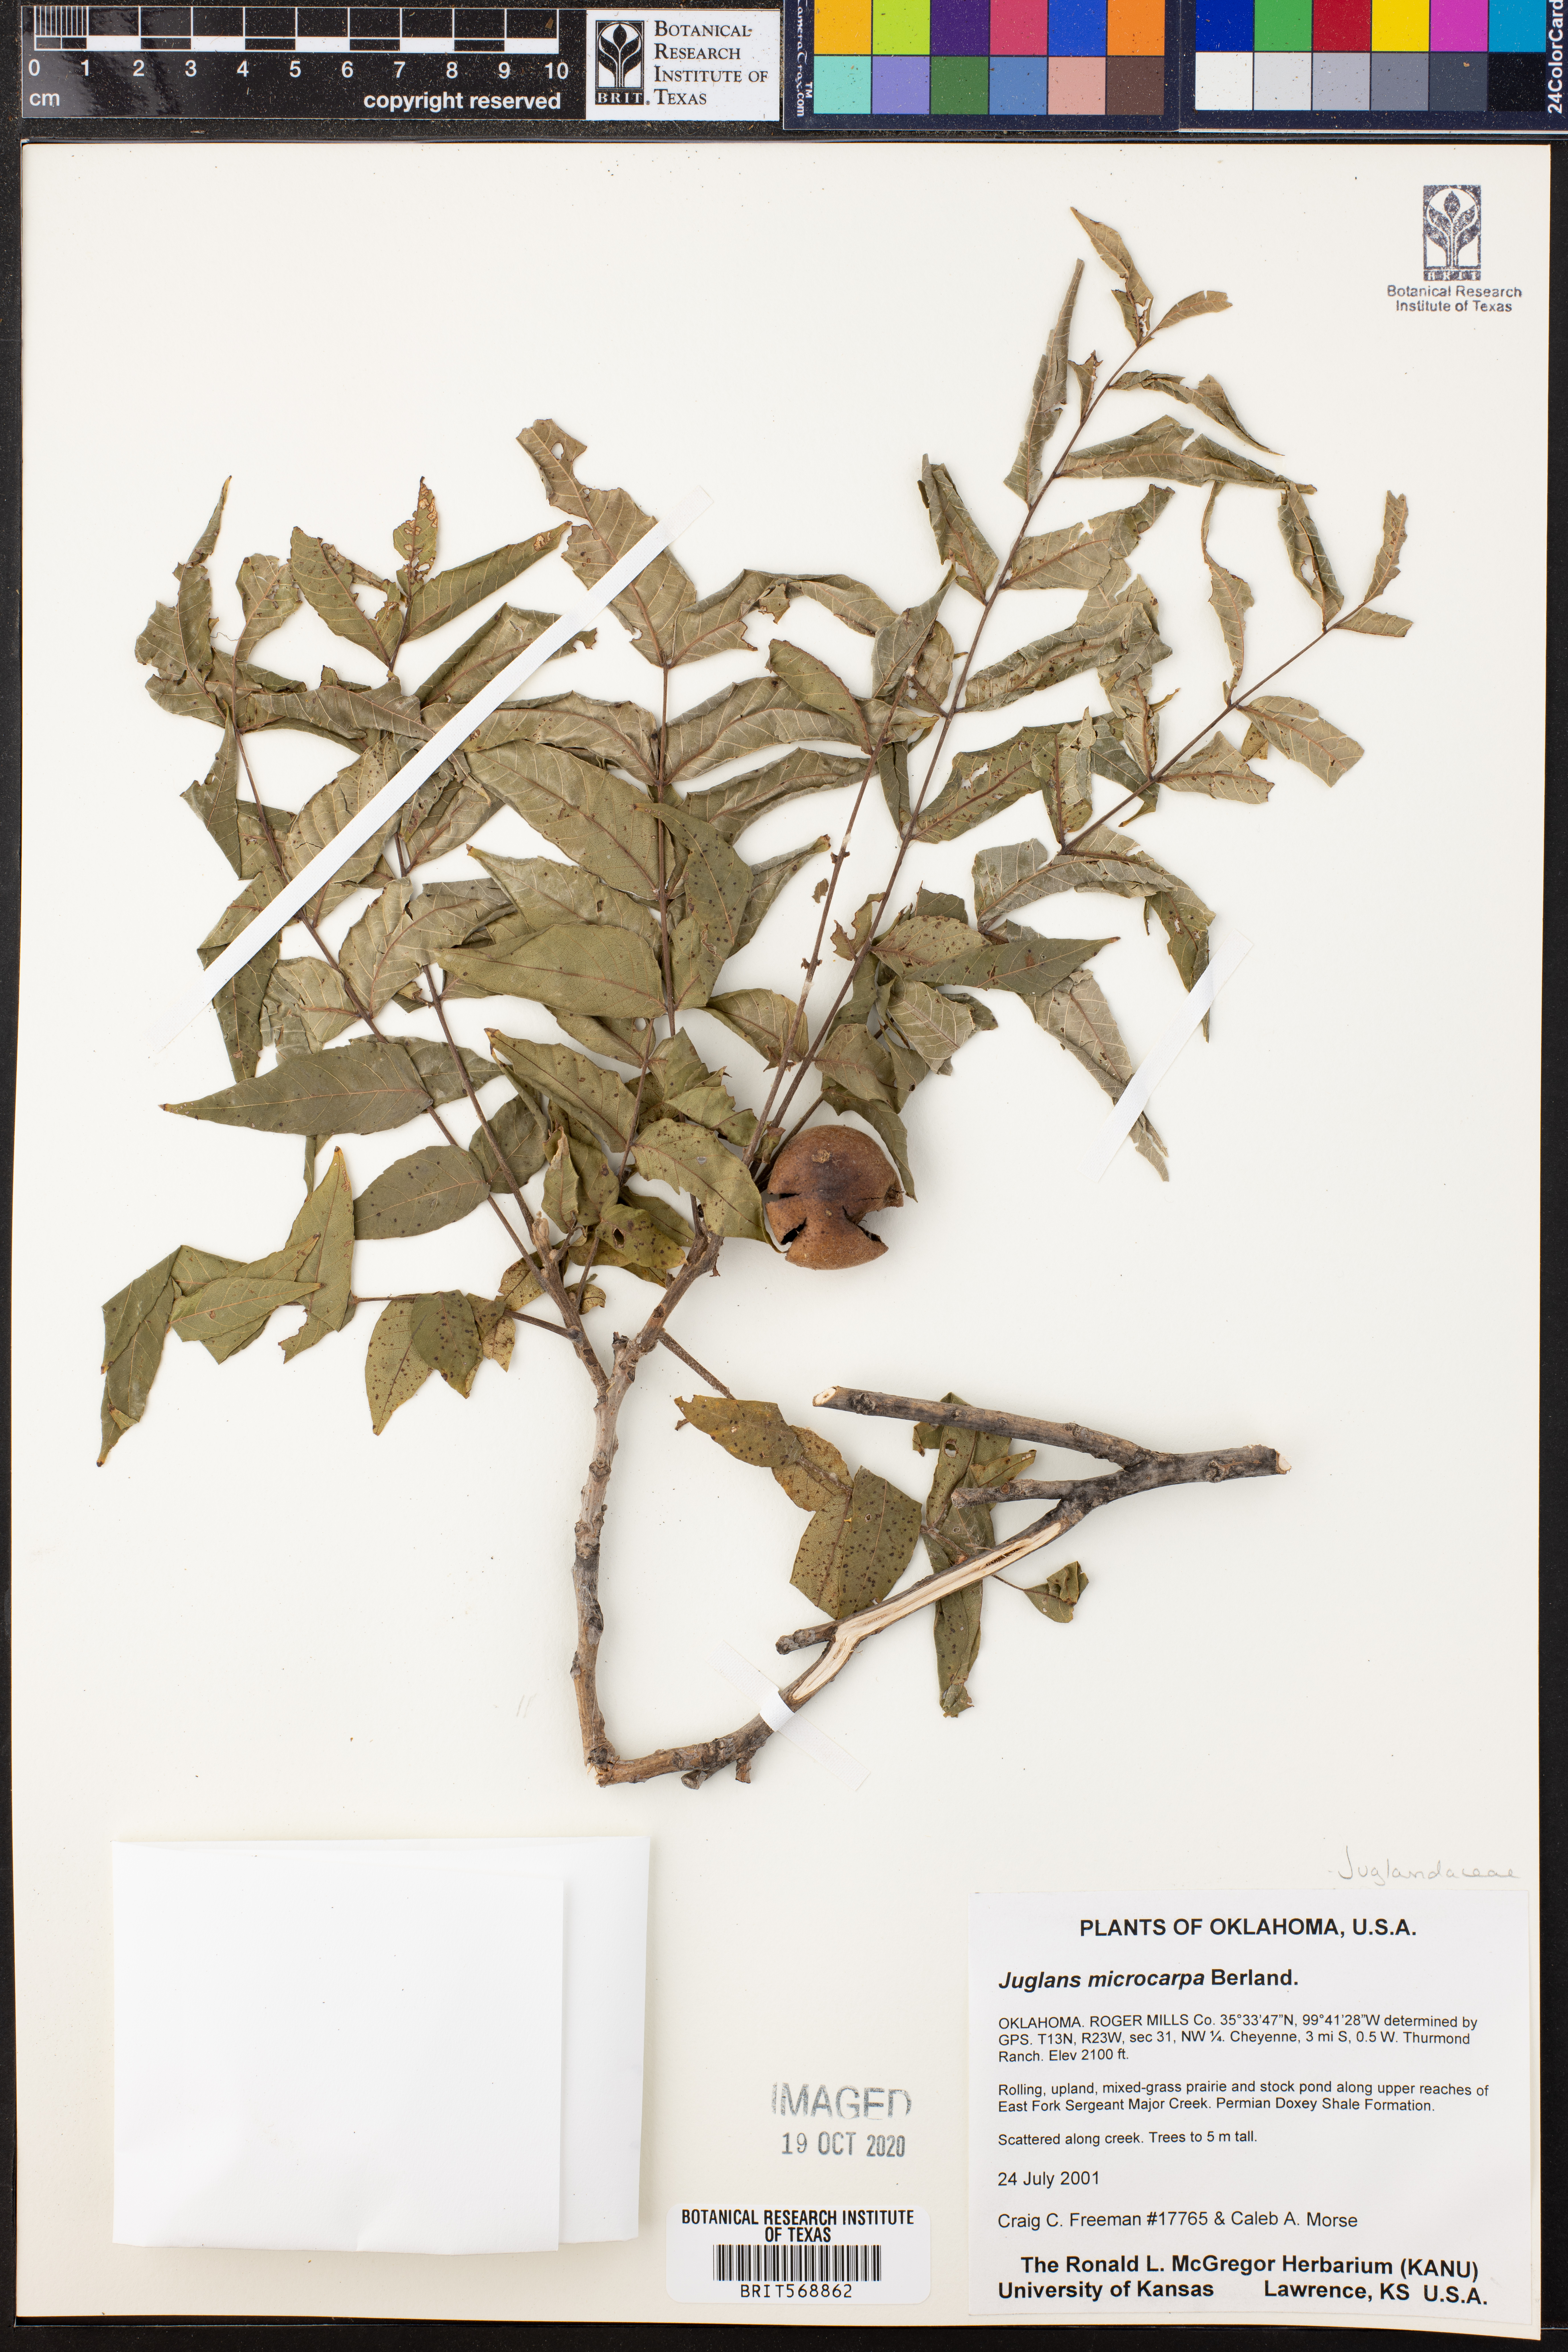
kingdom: Plantae
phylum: Tracheophyta
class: Magnoliopsida
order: Fagales
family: Juglandaceae
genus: Juglans
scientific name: Juglans microcarpa
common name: Texas walnut
